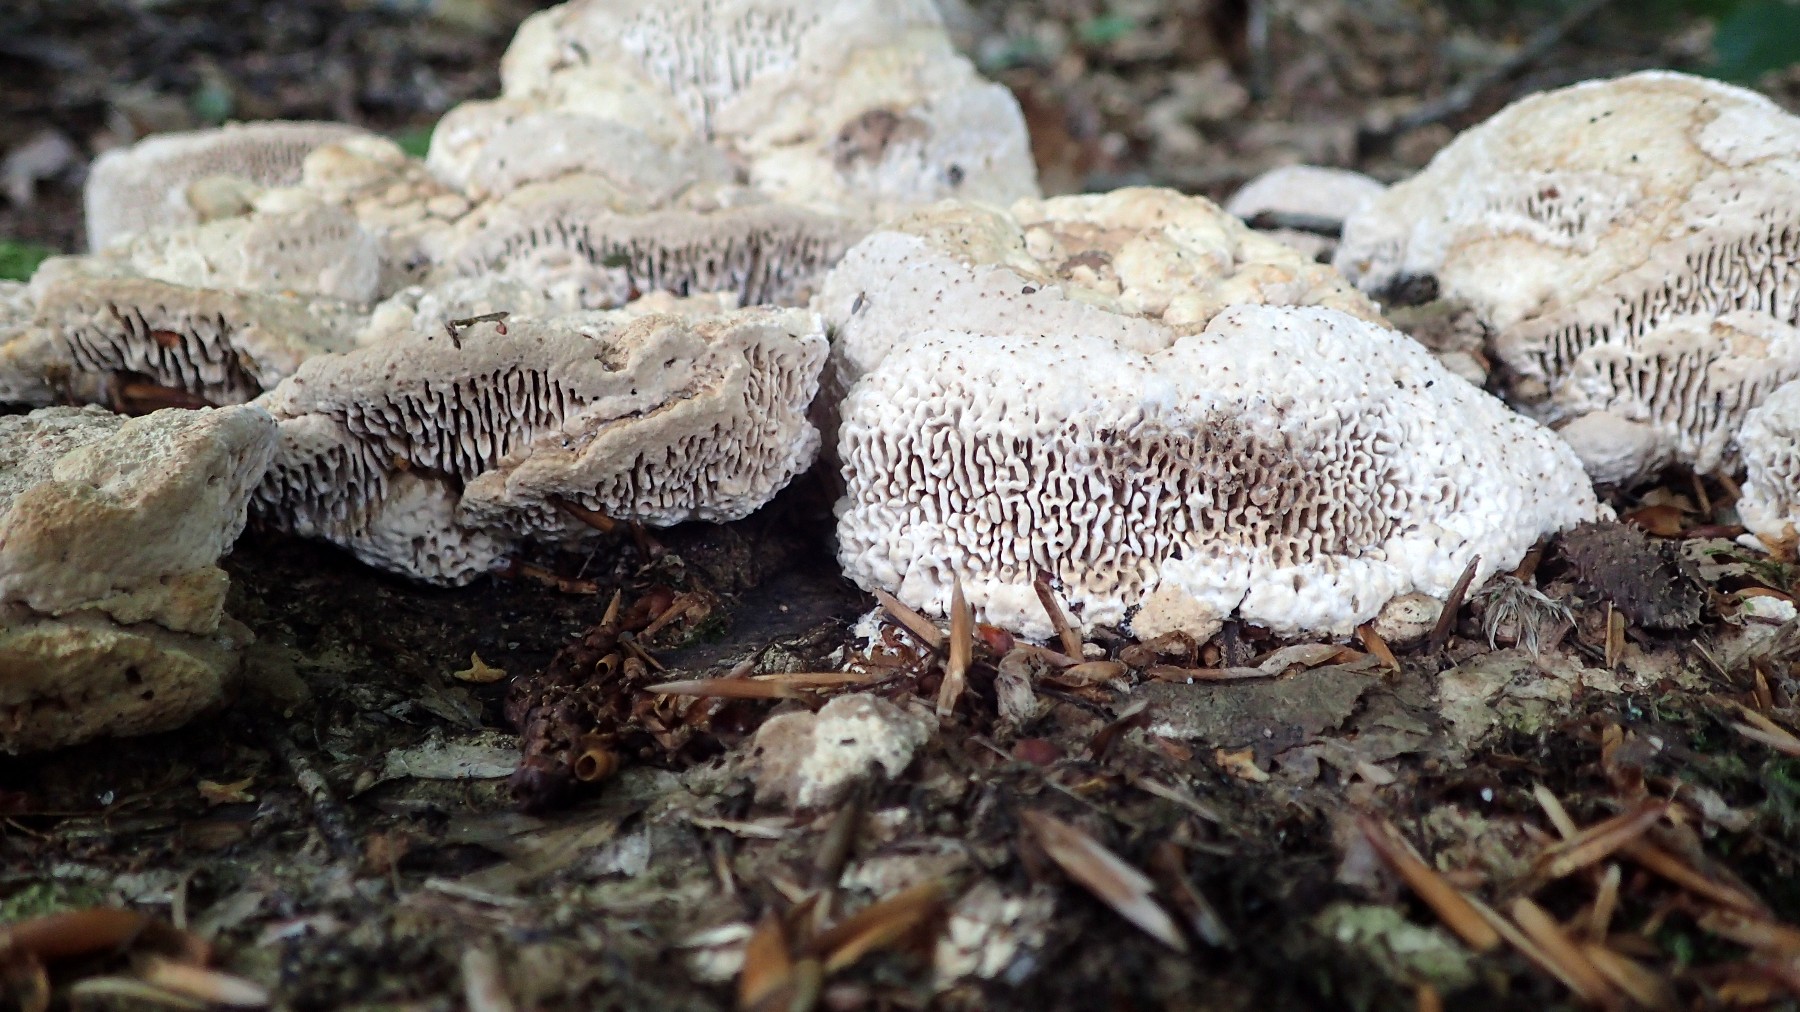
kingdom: Fungi
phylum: Basidiomycota
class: Agaricomycetes
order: Polyporales
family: Fomitopsidaceae
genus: Daedalea
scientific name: Daedalea quercina
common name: ege-labyrintsvamp
